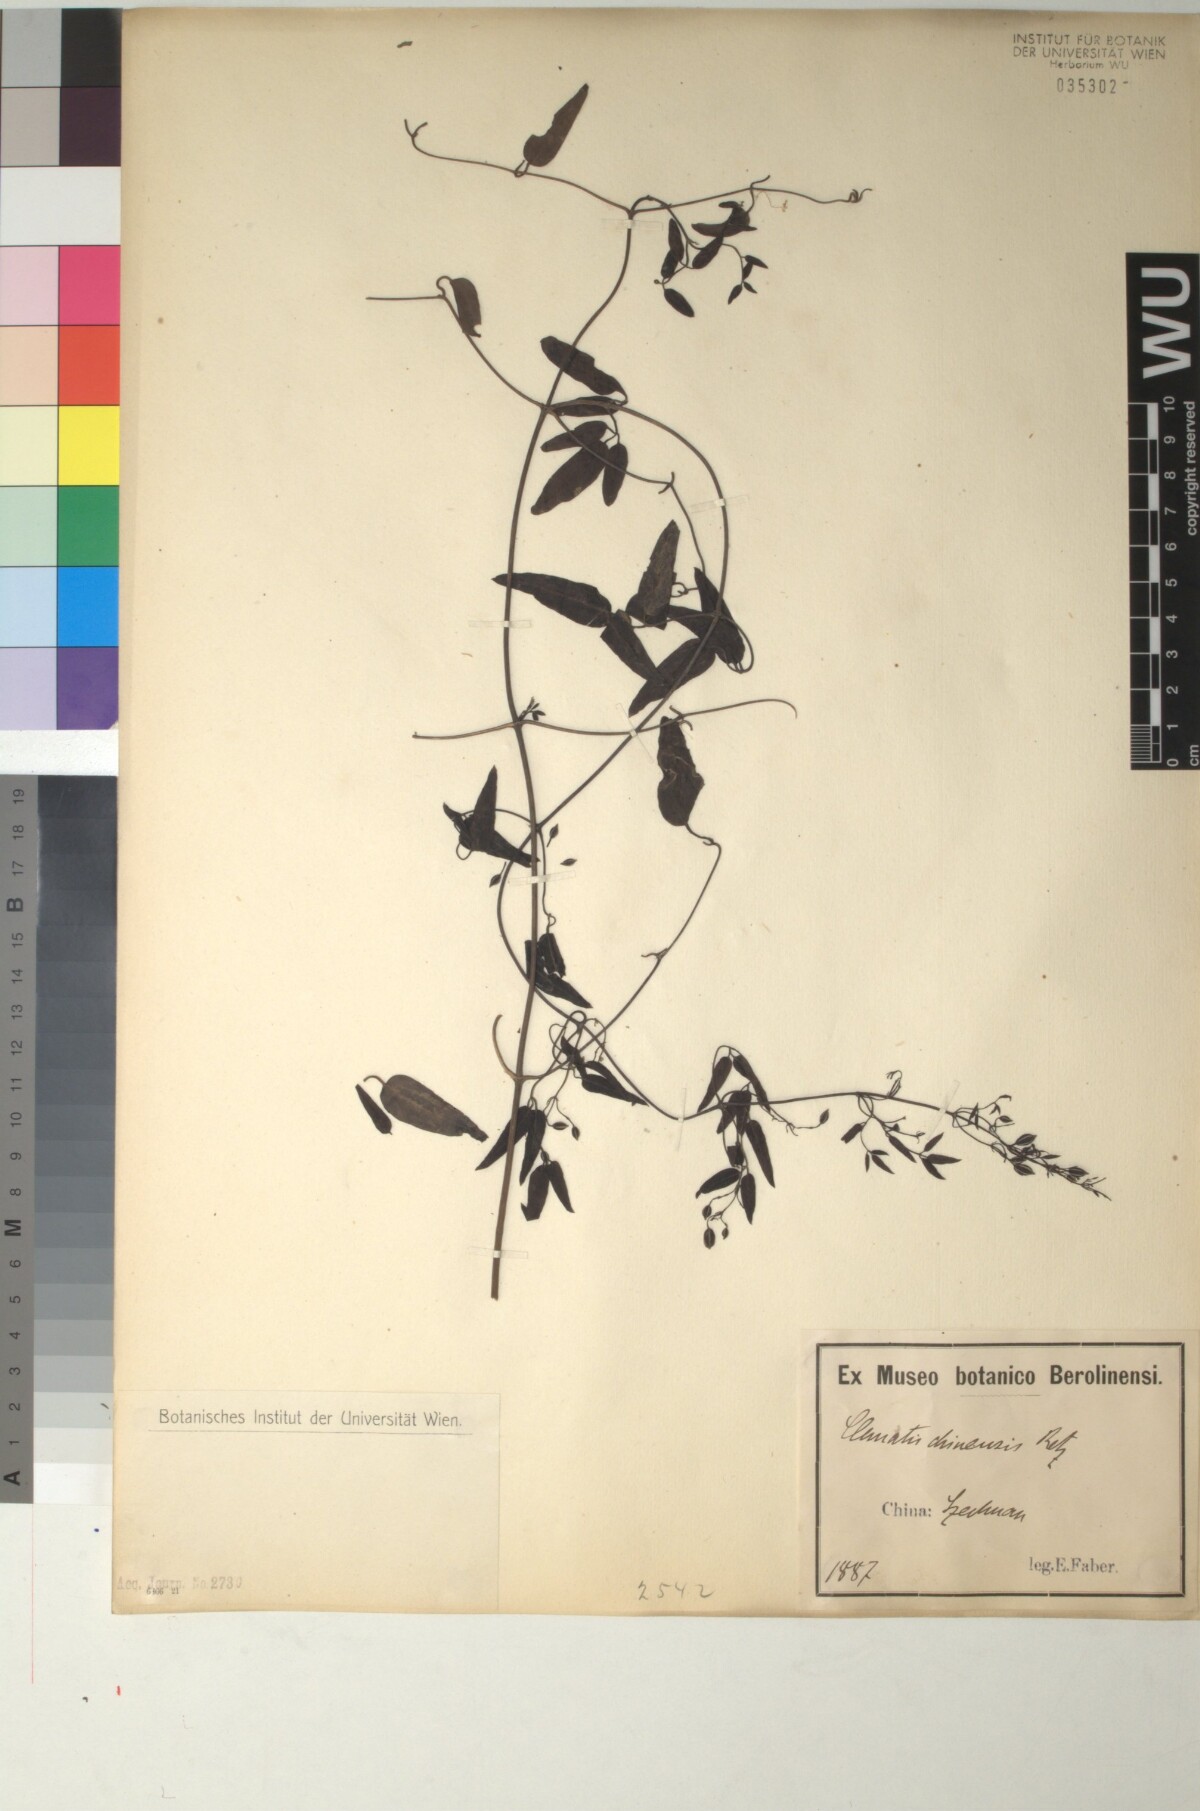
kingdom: Plantae
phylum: Tracheophyta
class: Magnoliopsida
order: Ranunculales
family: Ranunculaceae
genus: Clematis
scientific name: Clematis chinensis
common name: Chinese clematis
